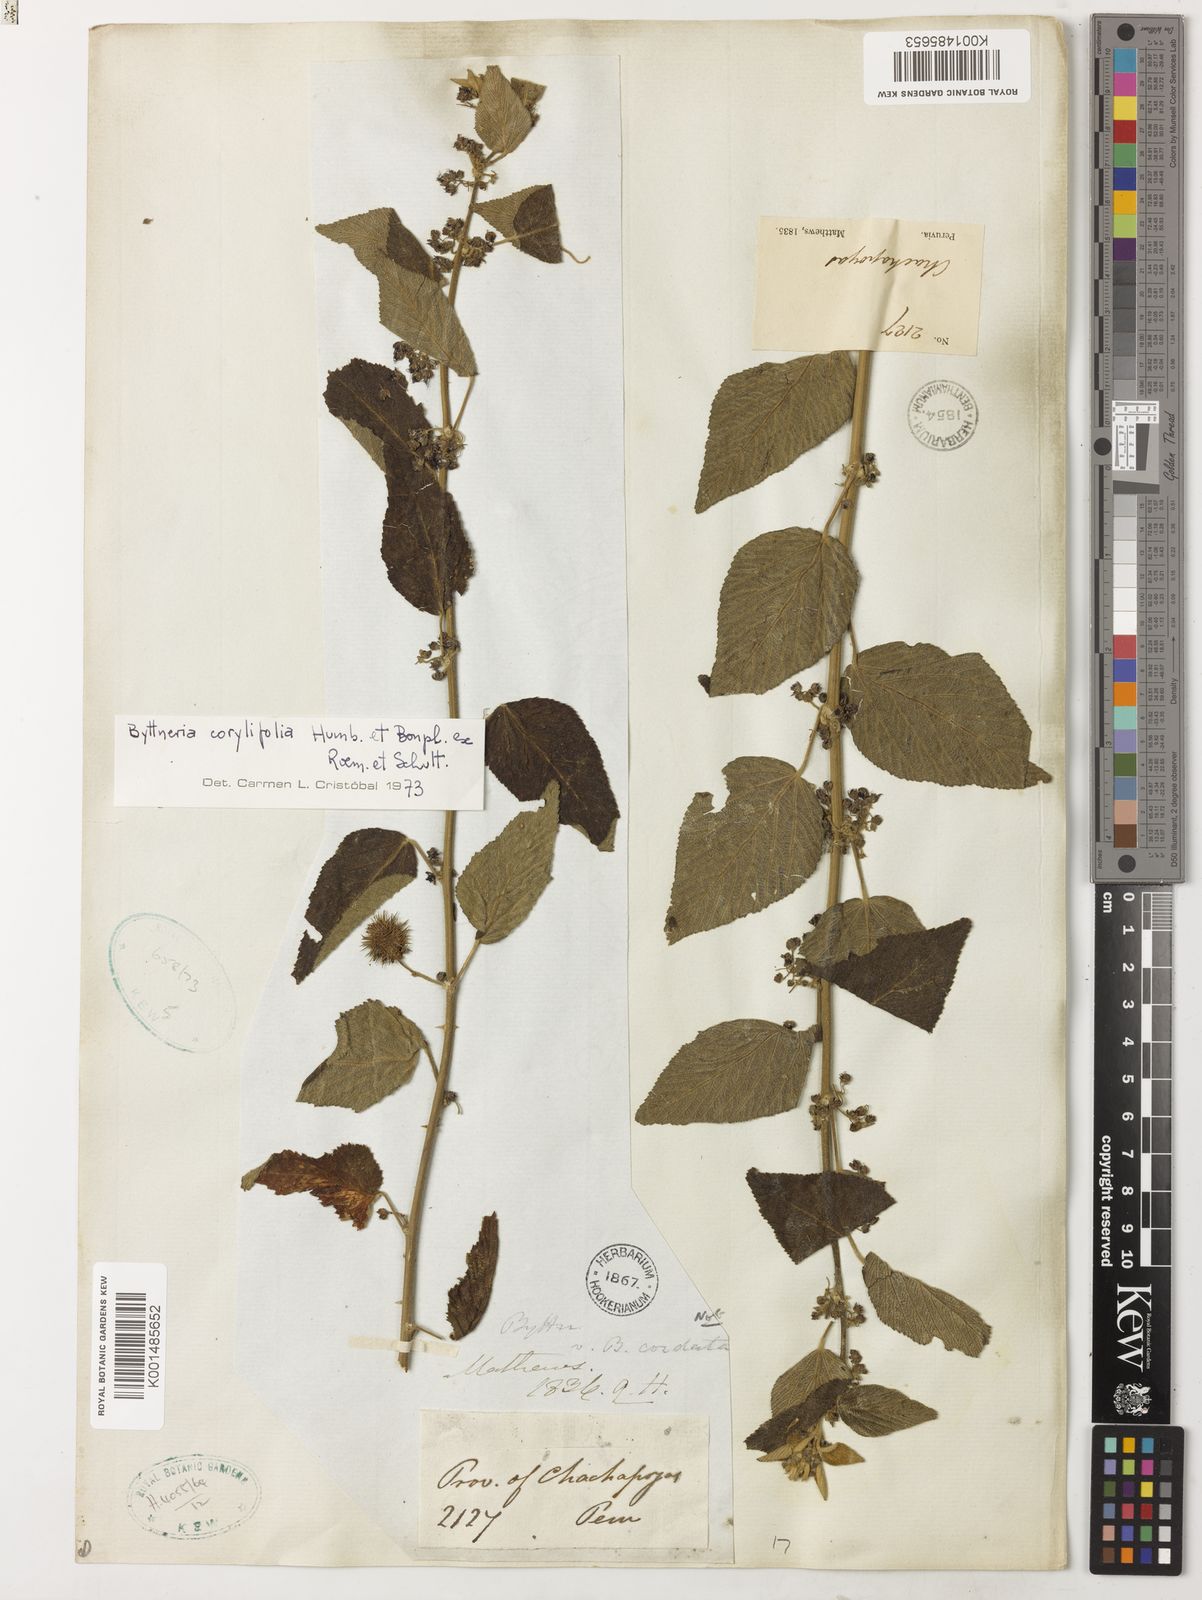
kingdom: Plantae
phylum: Tracheophyta
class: Magnoliopsida
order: Malvales
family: Malvaceae
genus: Byttneria
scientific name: Byttneria corylifolia
